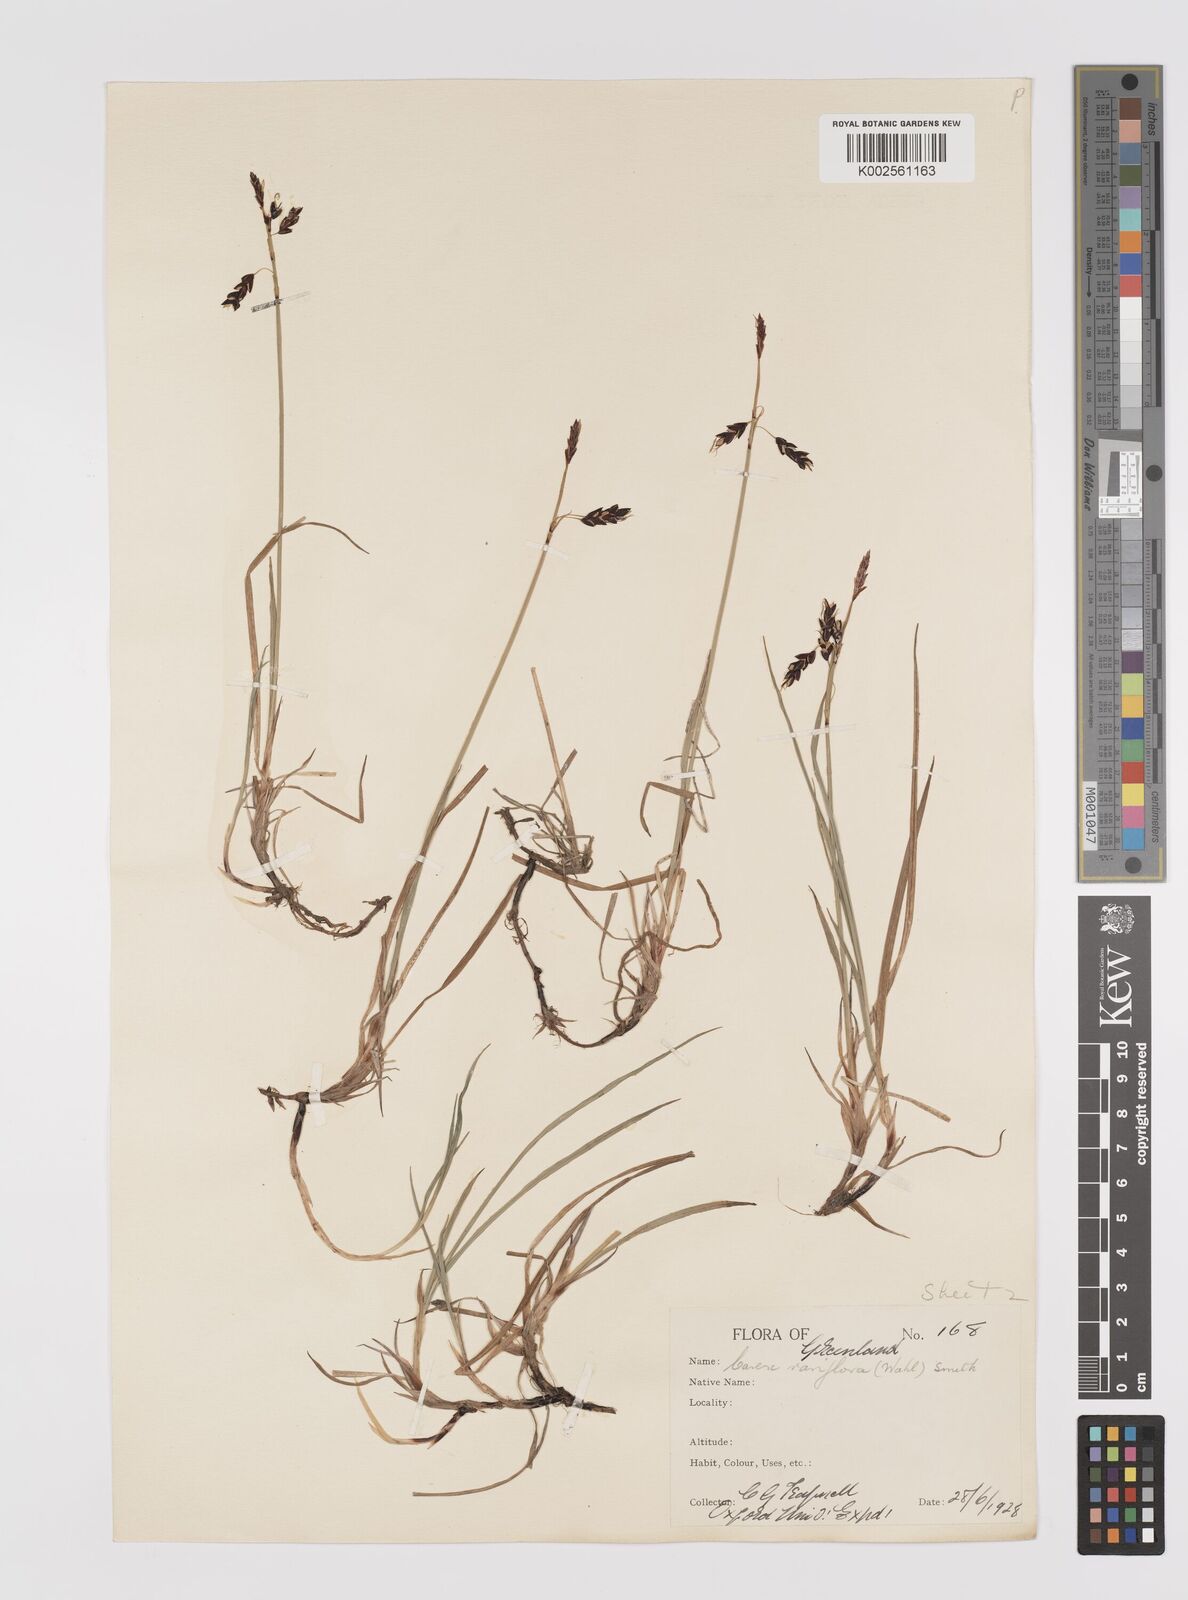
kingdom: Plantae
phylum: Tracheophyta
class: Liliopsida
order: Poales
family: Cyperaceae
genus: Carex
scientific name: Carex rariflora
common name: Loose-flowered alpine sedge
